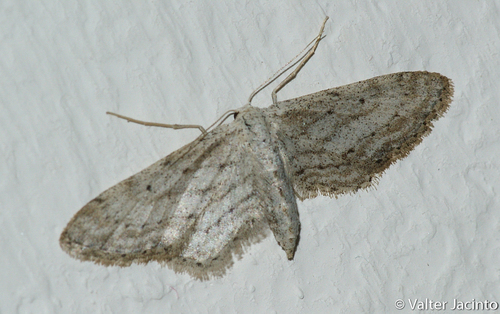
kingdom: Animalia
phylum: Arthropoda
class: Insecta
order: Lepidoptera
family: Geometridae
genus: Idaea
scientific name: Idaea longaria
